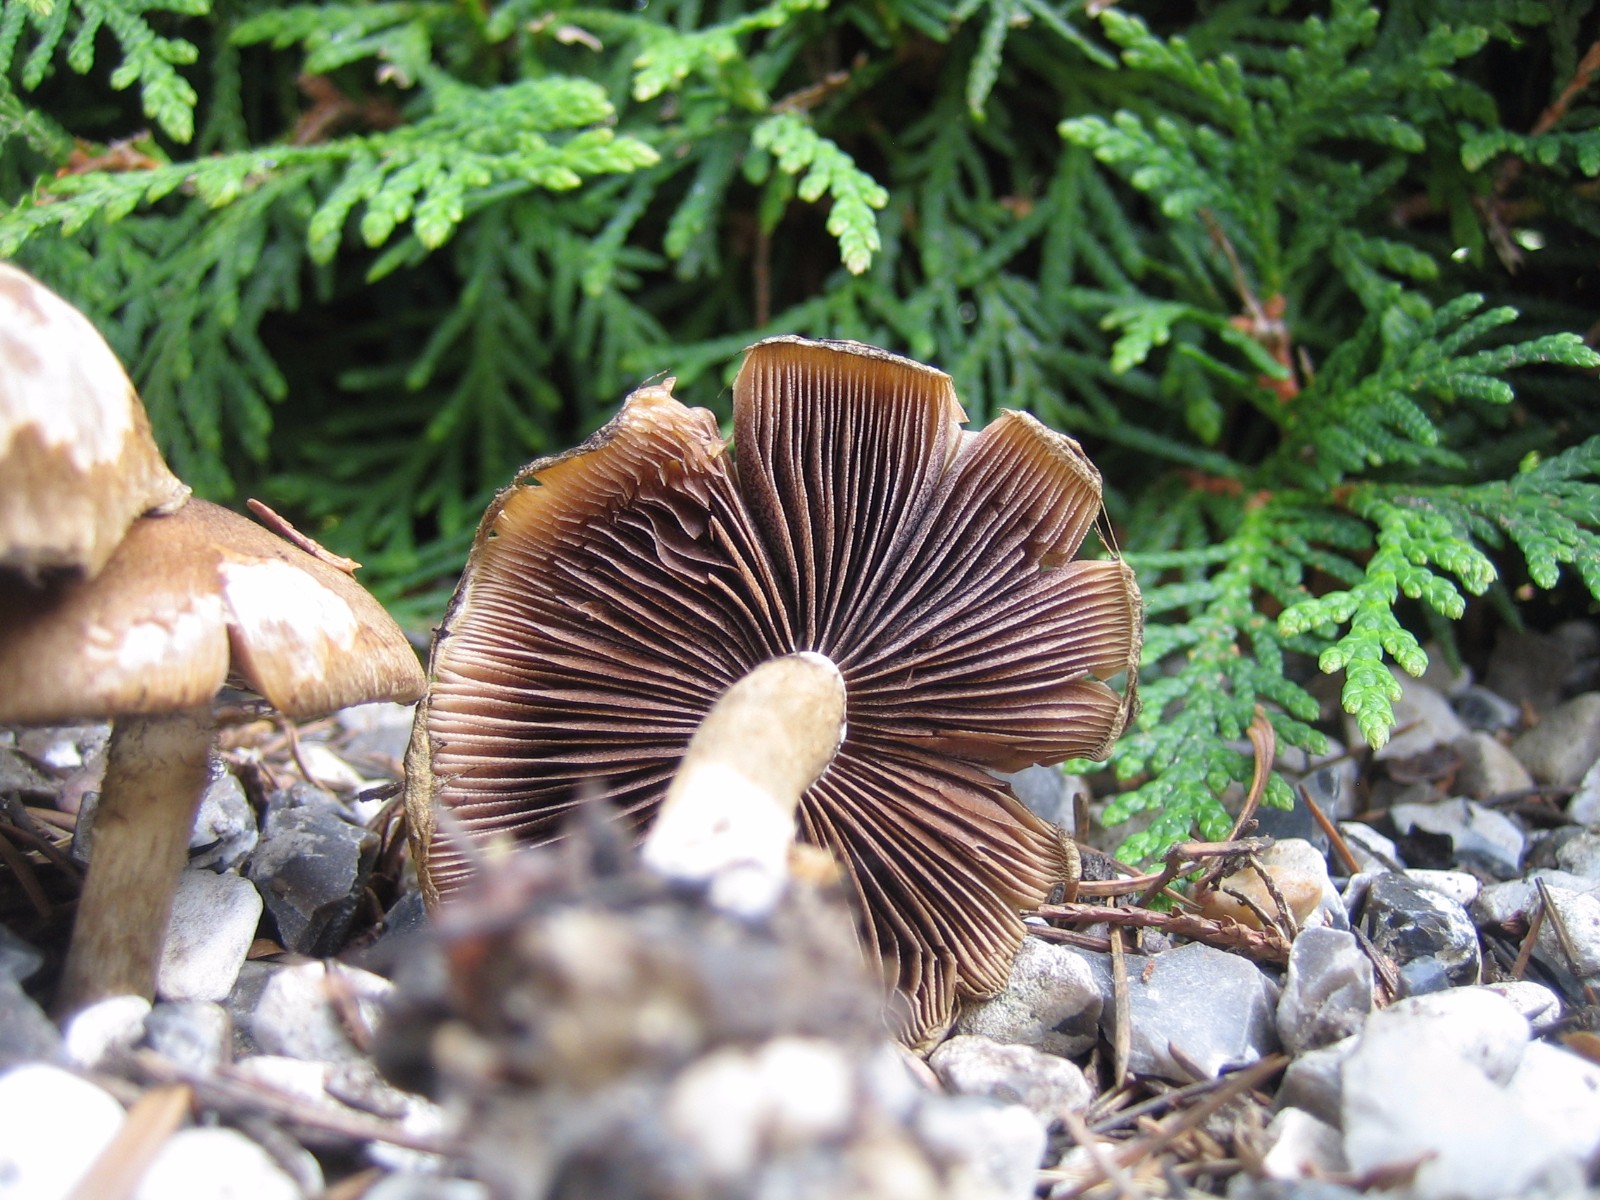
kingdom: Fungi
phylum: Basidiomycota
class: Agaricomycetes
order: Agaricales
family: Psathyrellaceae
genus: Lacrymaria
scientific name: Lacrymaria lacrymabunda
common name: grædende mørkhat
